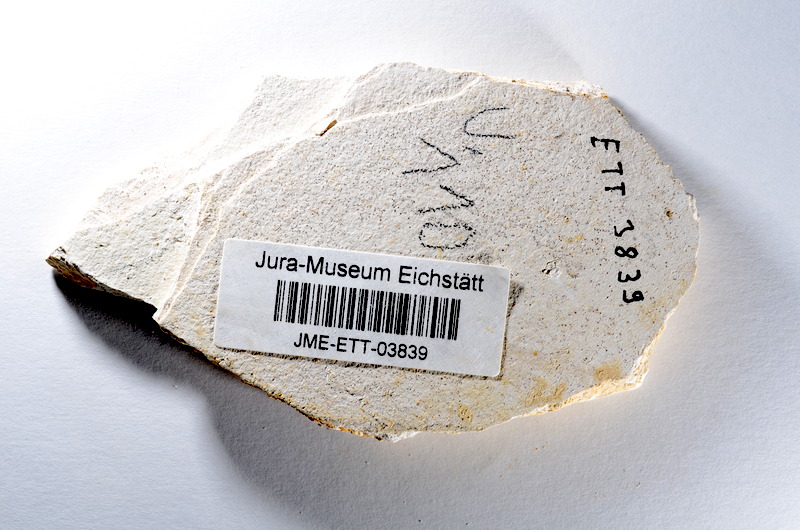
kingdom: Animalia
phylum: Chordata
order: Salmoniformes
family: Orthogonikleithridae
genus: Orthogonikleithrus
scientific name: Orthogonikleithrus hoelli
